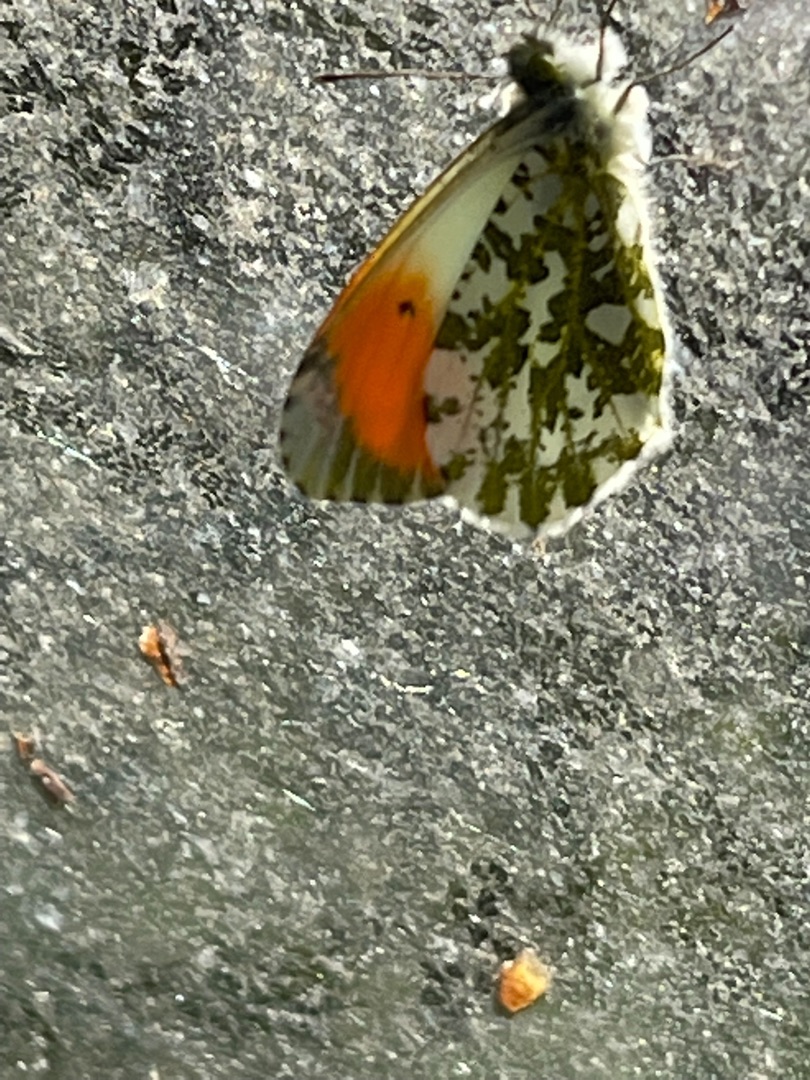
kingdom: Animalia
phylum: Arthropoda
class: Insecta
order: Lepidoptera
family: Pieridae
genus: Anthocharis
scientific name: Anthocharis cardamines
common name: Aurora
